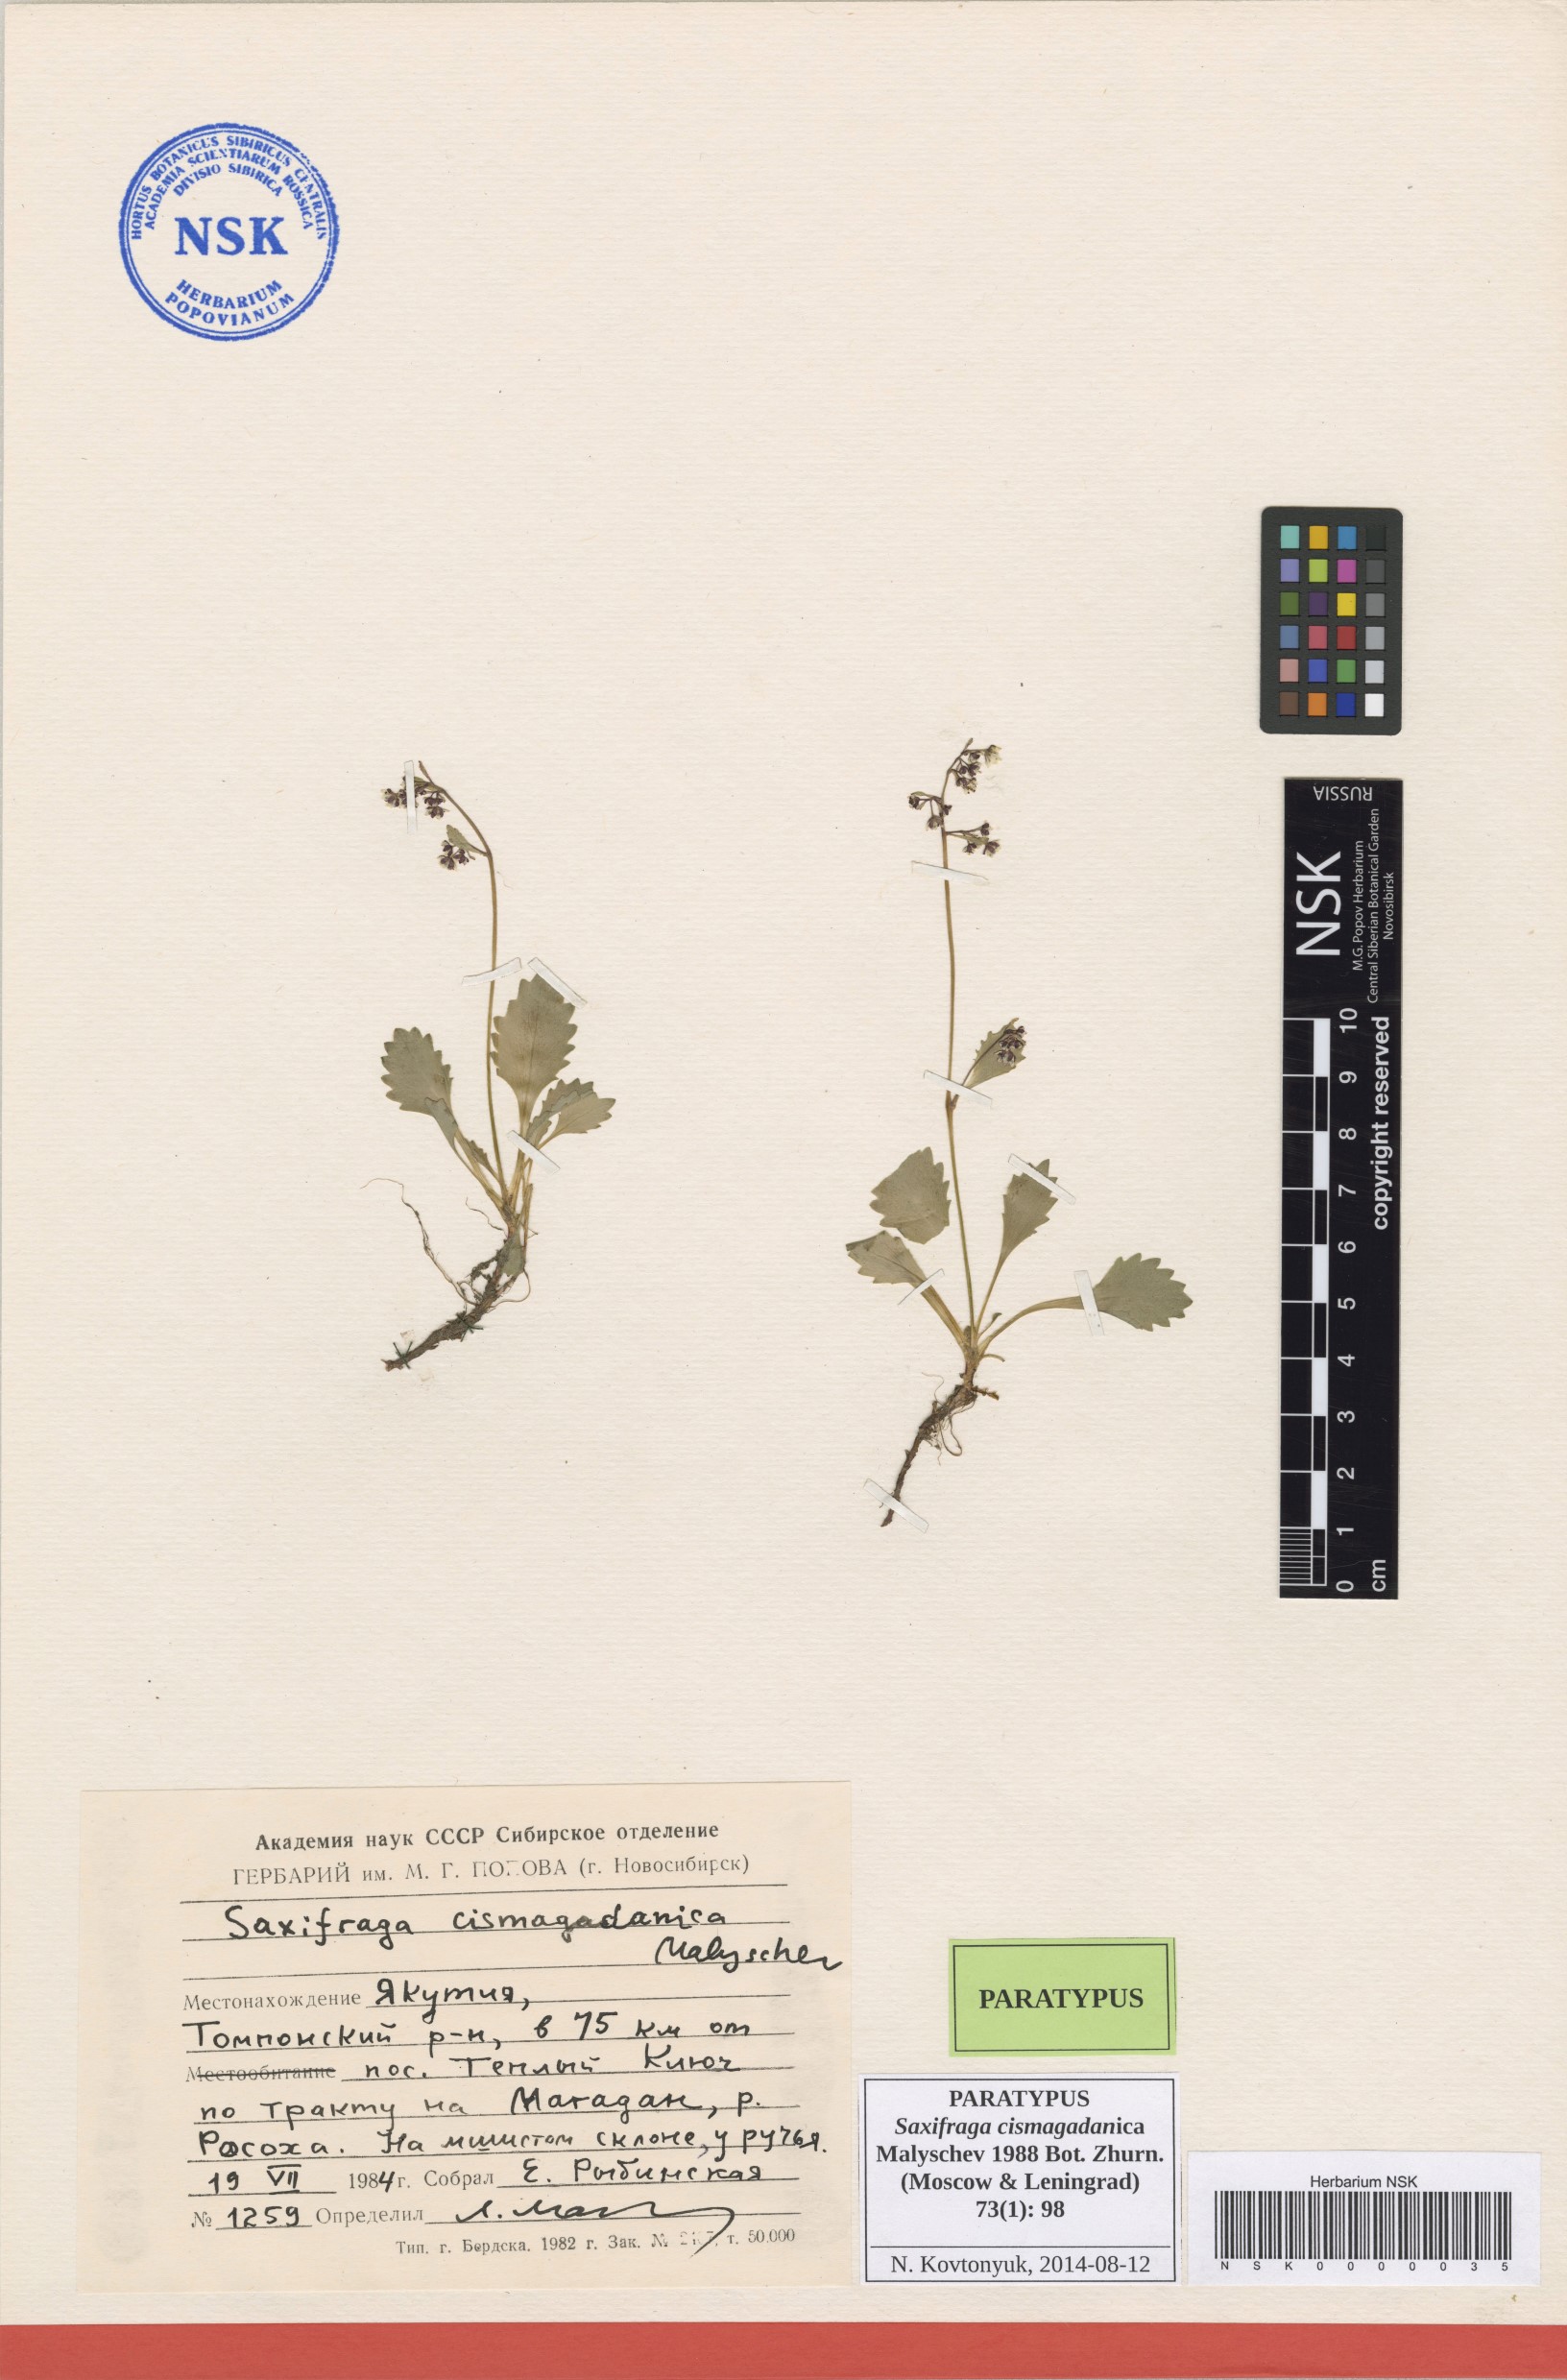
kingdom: Plantae
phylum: Tracheophyta
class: Magnoliopsida
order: Saxifragales
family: Saxifragaceae
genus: Micranthes
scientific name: Micranthes cismagadanica
